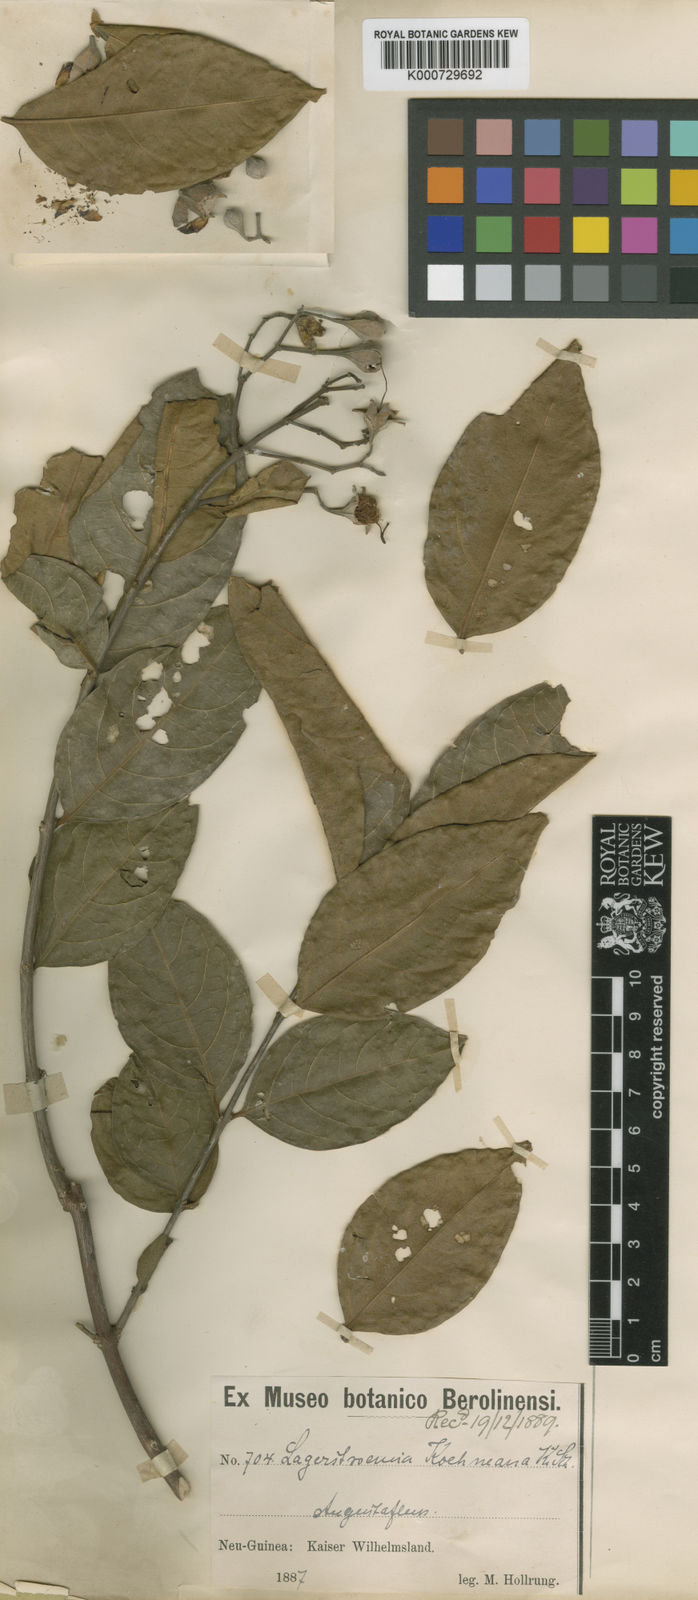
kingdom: Plantae
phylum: Tracheophyta
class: Magnoliopsida
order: Myrtales
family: Lythraceae
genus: Lagerstroemia
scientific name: Lagerstroemia celebica
